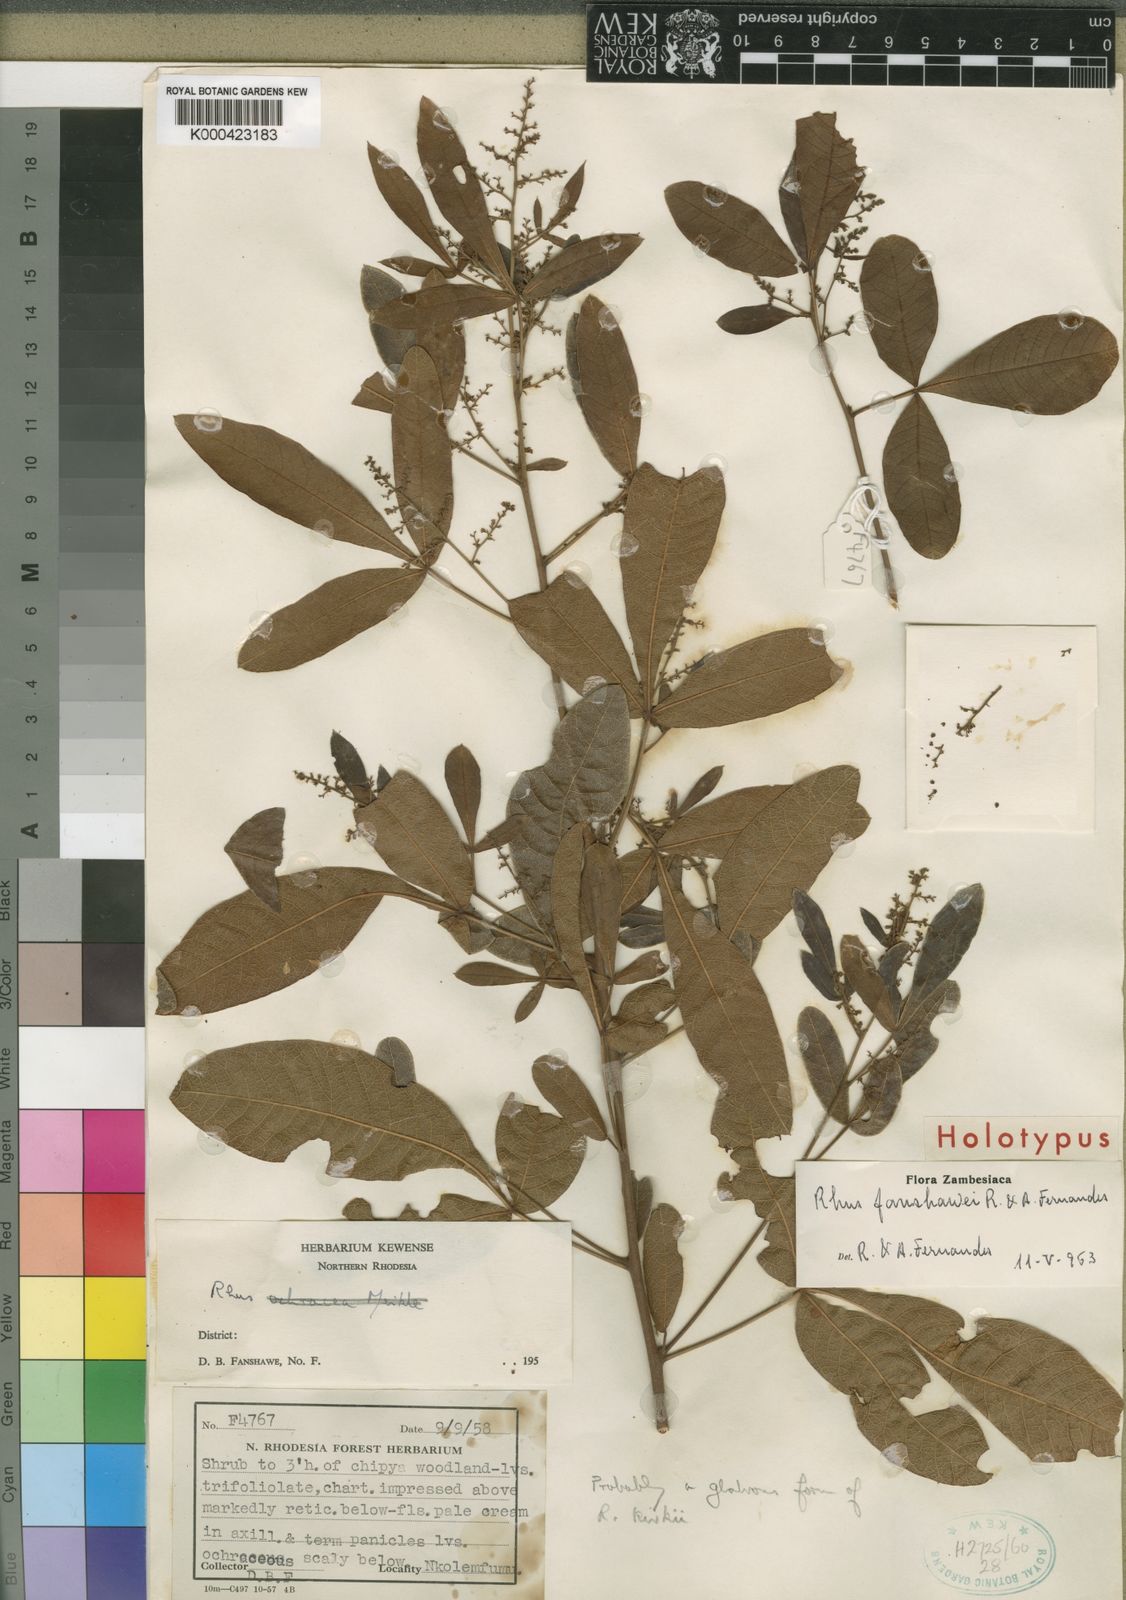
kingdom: Plantae
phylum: Tracheophyta
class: Magnoliopsida
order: Sapindales
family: Anacardiaceae
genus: Searsia
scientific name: Searsia magalismontana
